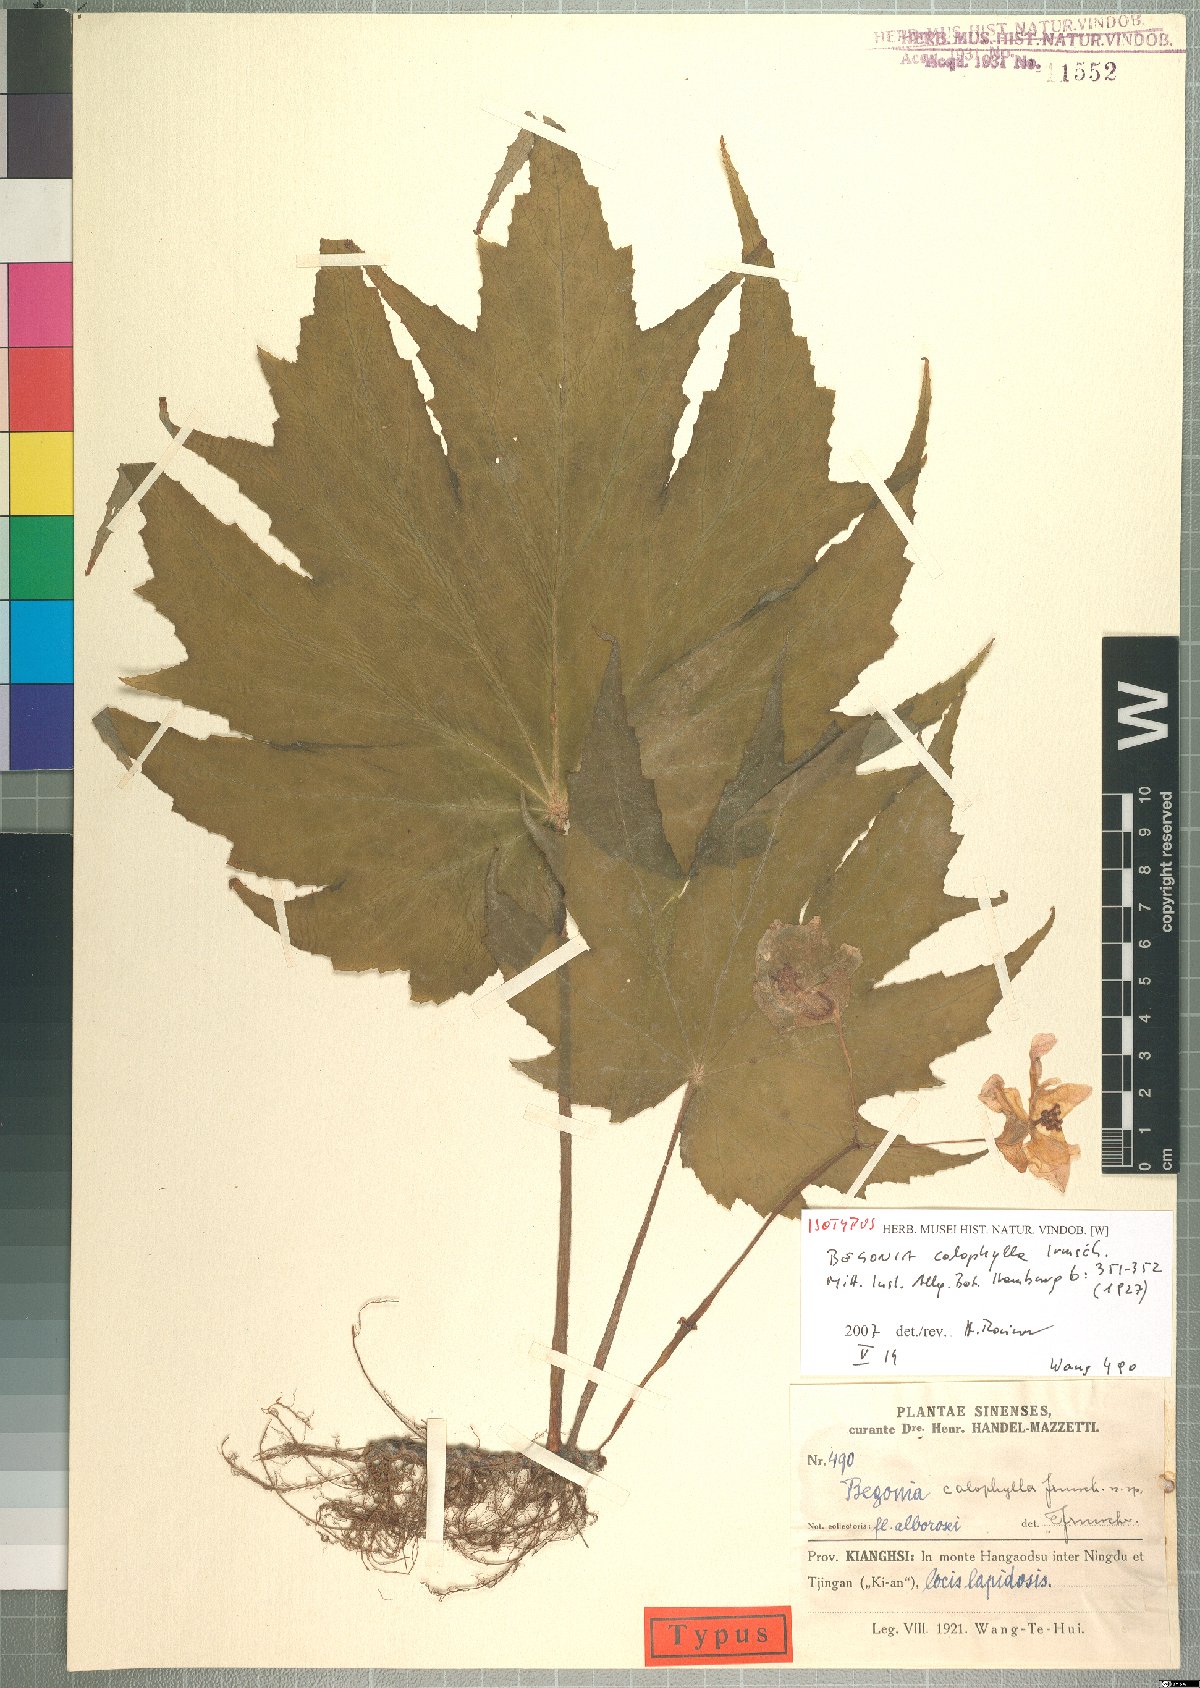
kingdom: Plantae
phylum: Tracheophyta
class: Magnoliopsida
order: Cucurbitales
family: Begoniaceae
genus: Begonia
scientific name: Begonia algaia
